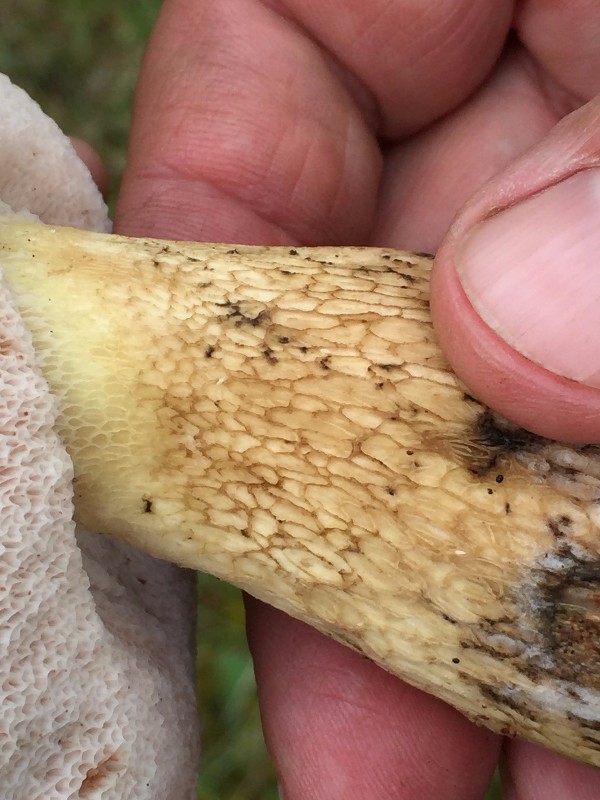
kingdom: Fungi
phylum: Basidiomycota
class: Agaricomycetes
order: Boletales
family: Boletaceae
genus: Tylopilus
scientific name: Tylopilus felleus
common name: galderørhat
